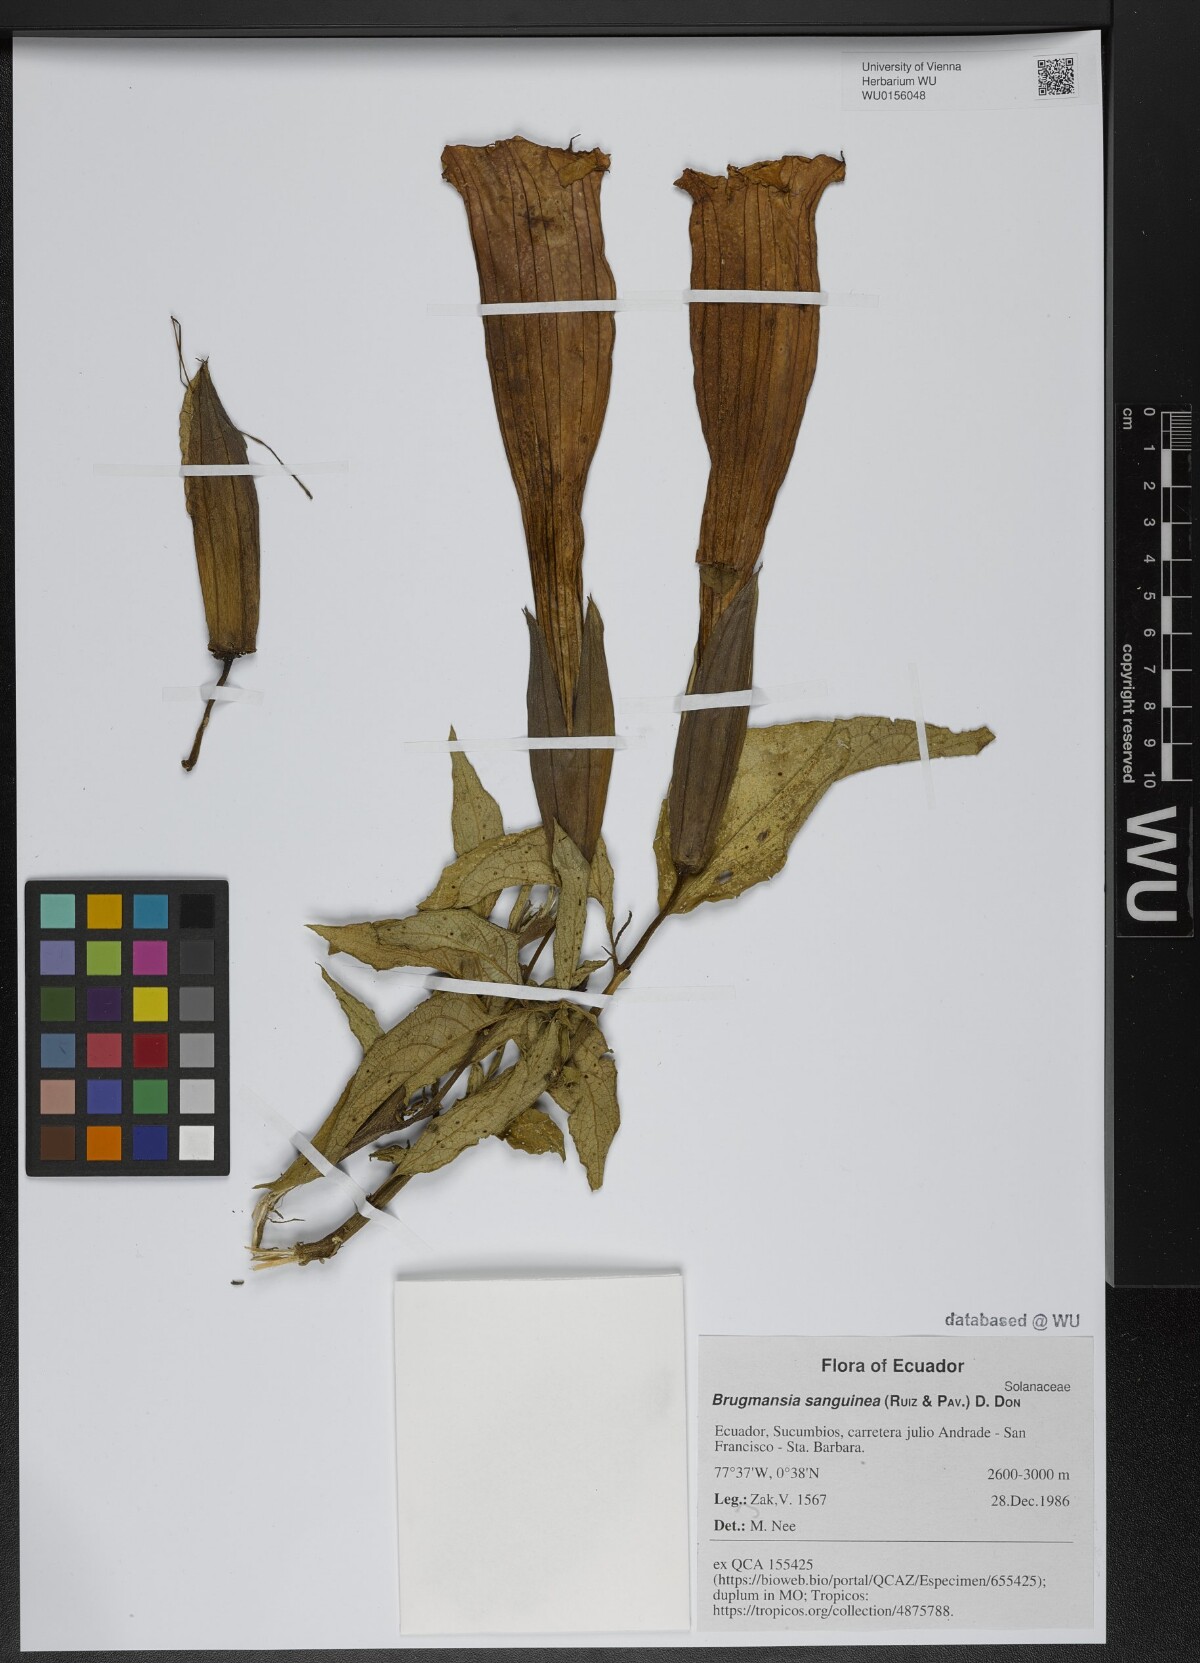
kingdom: Plantae
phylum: Tracheophyta
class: Magnoliopsida
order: Solanales
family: Solanaceae
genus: Brugmansia
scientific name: Brugmansia sanguinea
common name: Red floripontio
